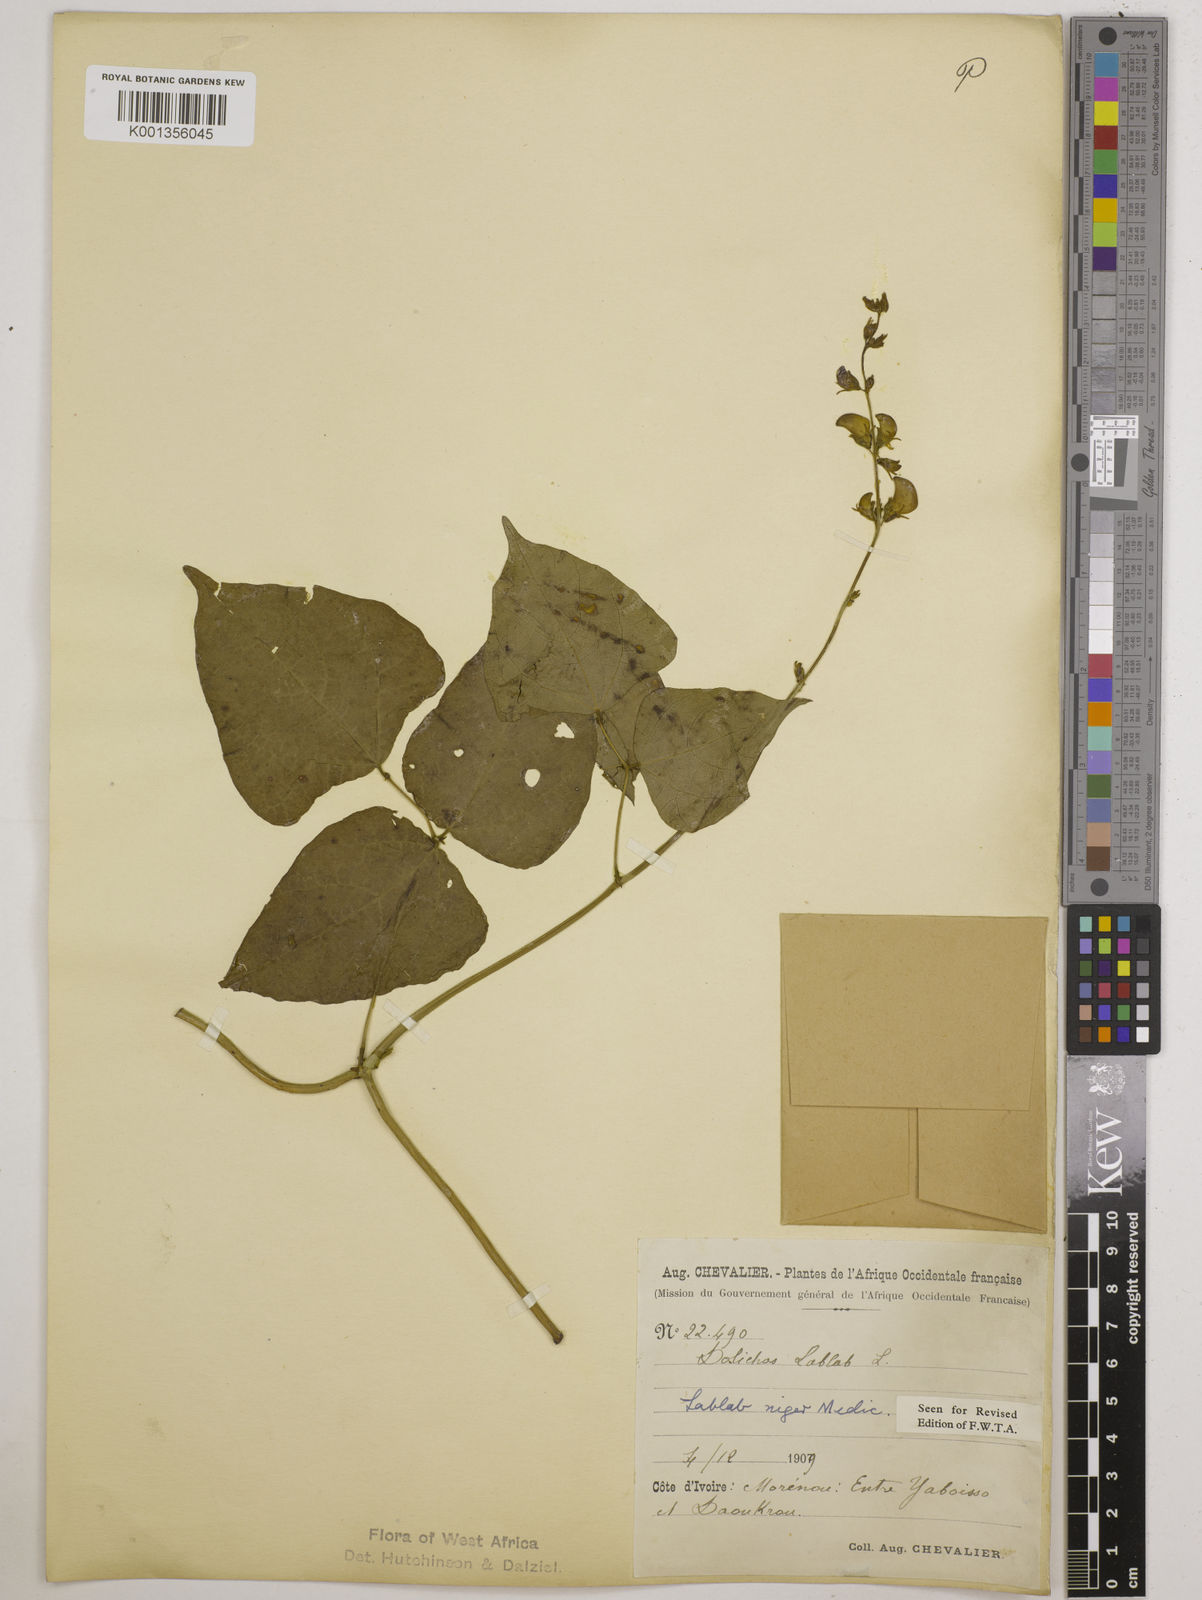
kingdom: Plantae
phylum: Tracheophyta
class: Magnoliopsida
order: Fabales
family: Fabaceae
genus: Lablab
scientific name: Lablab purpureus
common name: Lablab-bean
